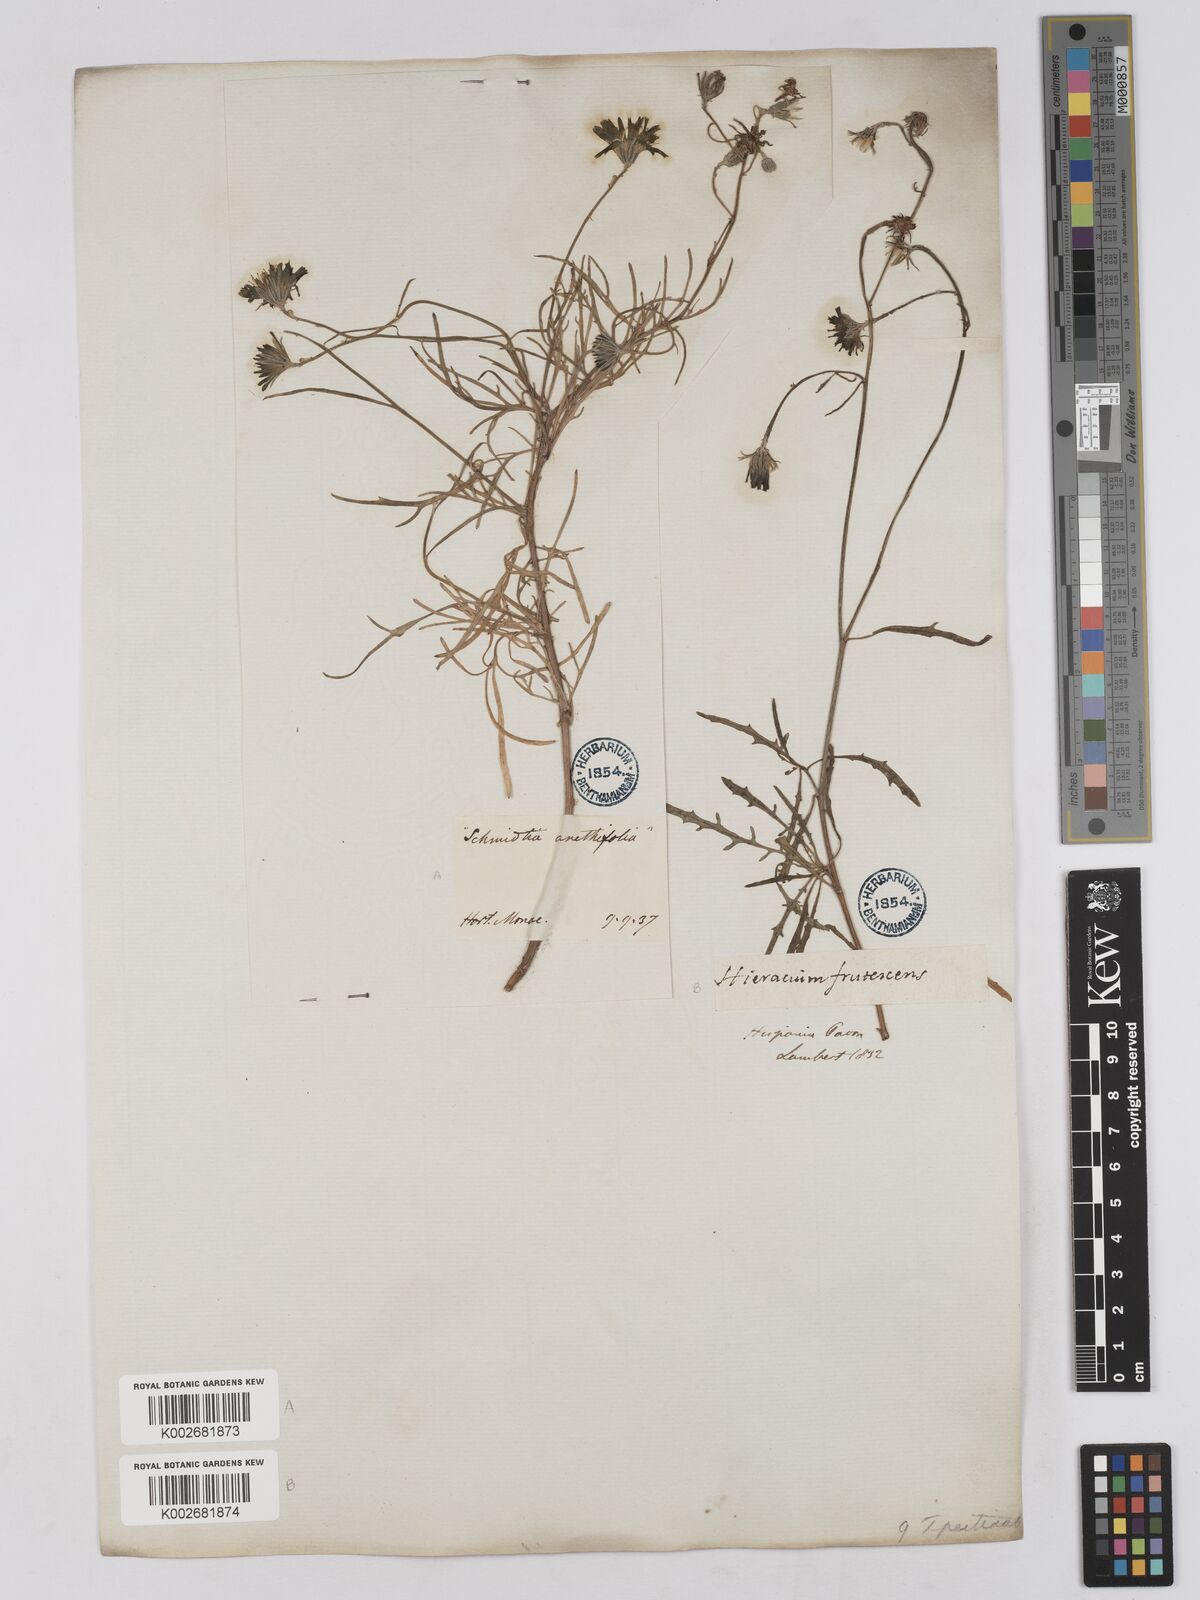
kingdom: Plantae
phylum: Tracheophyta
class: Magnoliopsida
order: Asterales
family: Asteraceae
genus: Tolpis
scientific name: Tolpis succulenta
